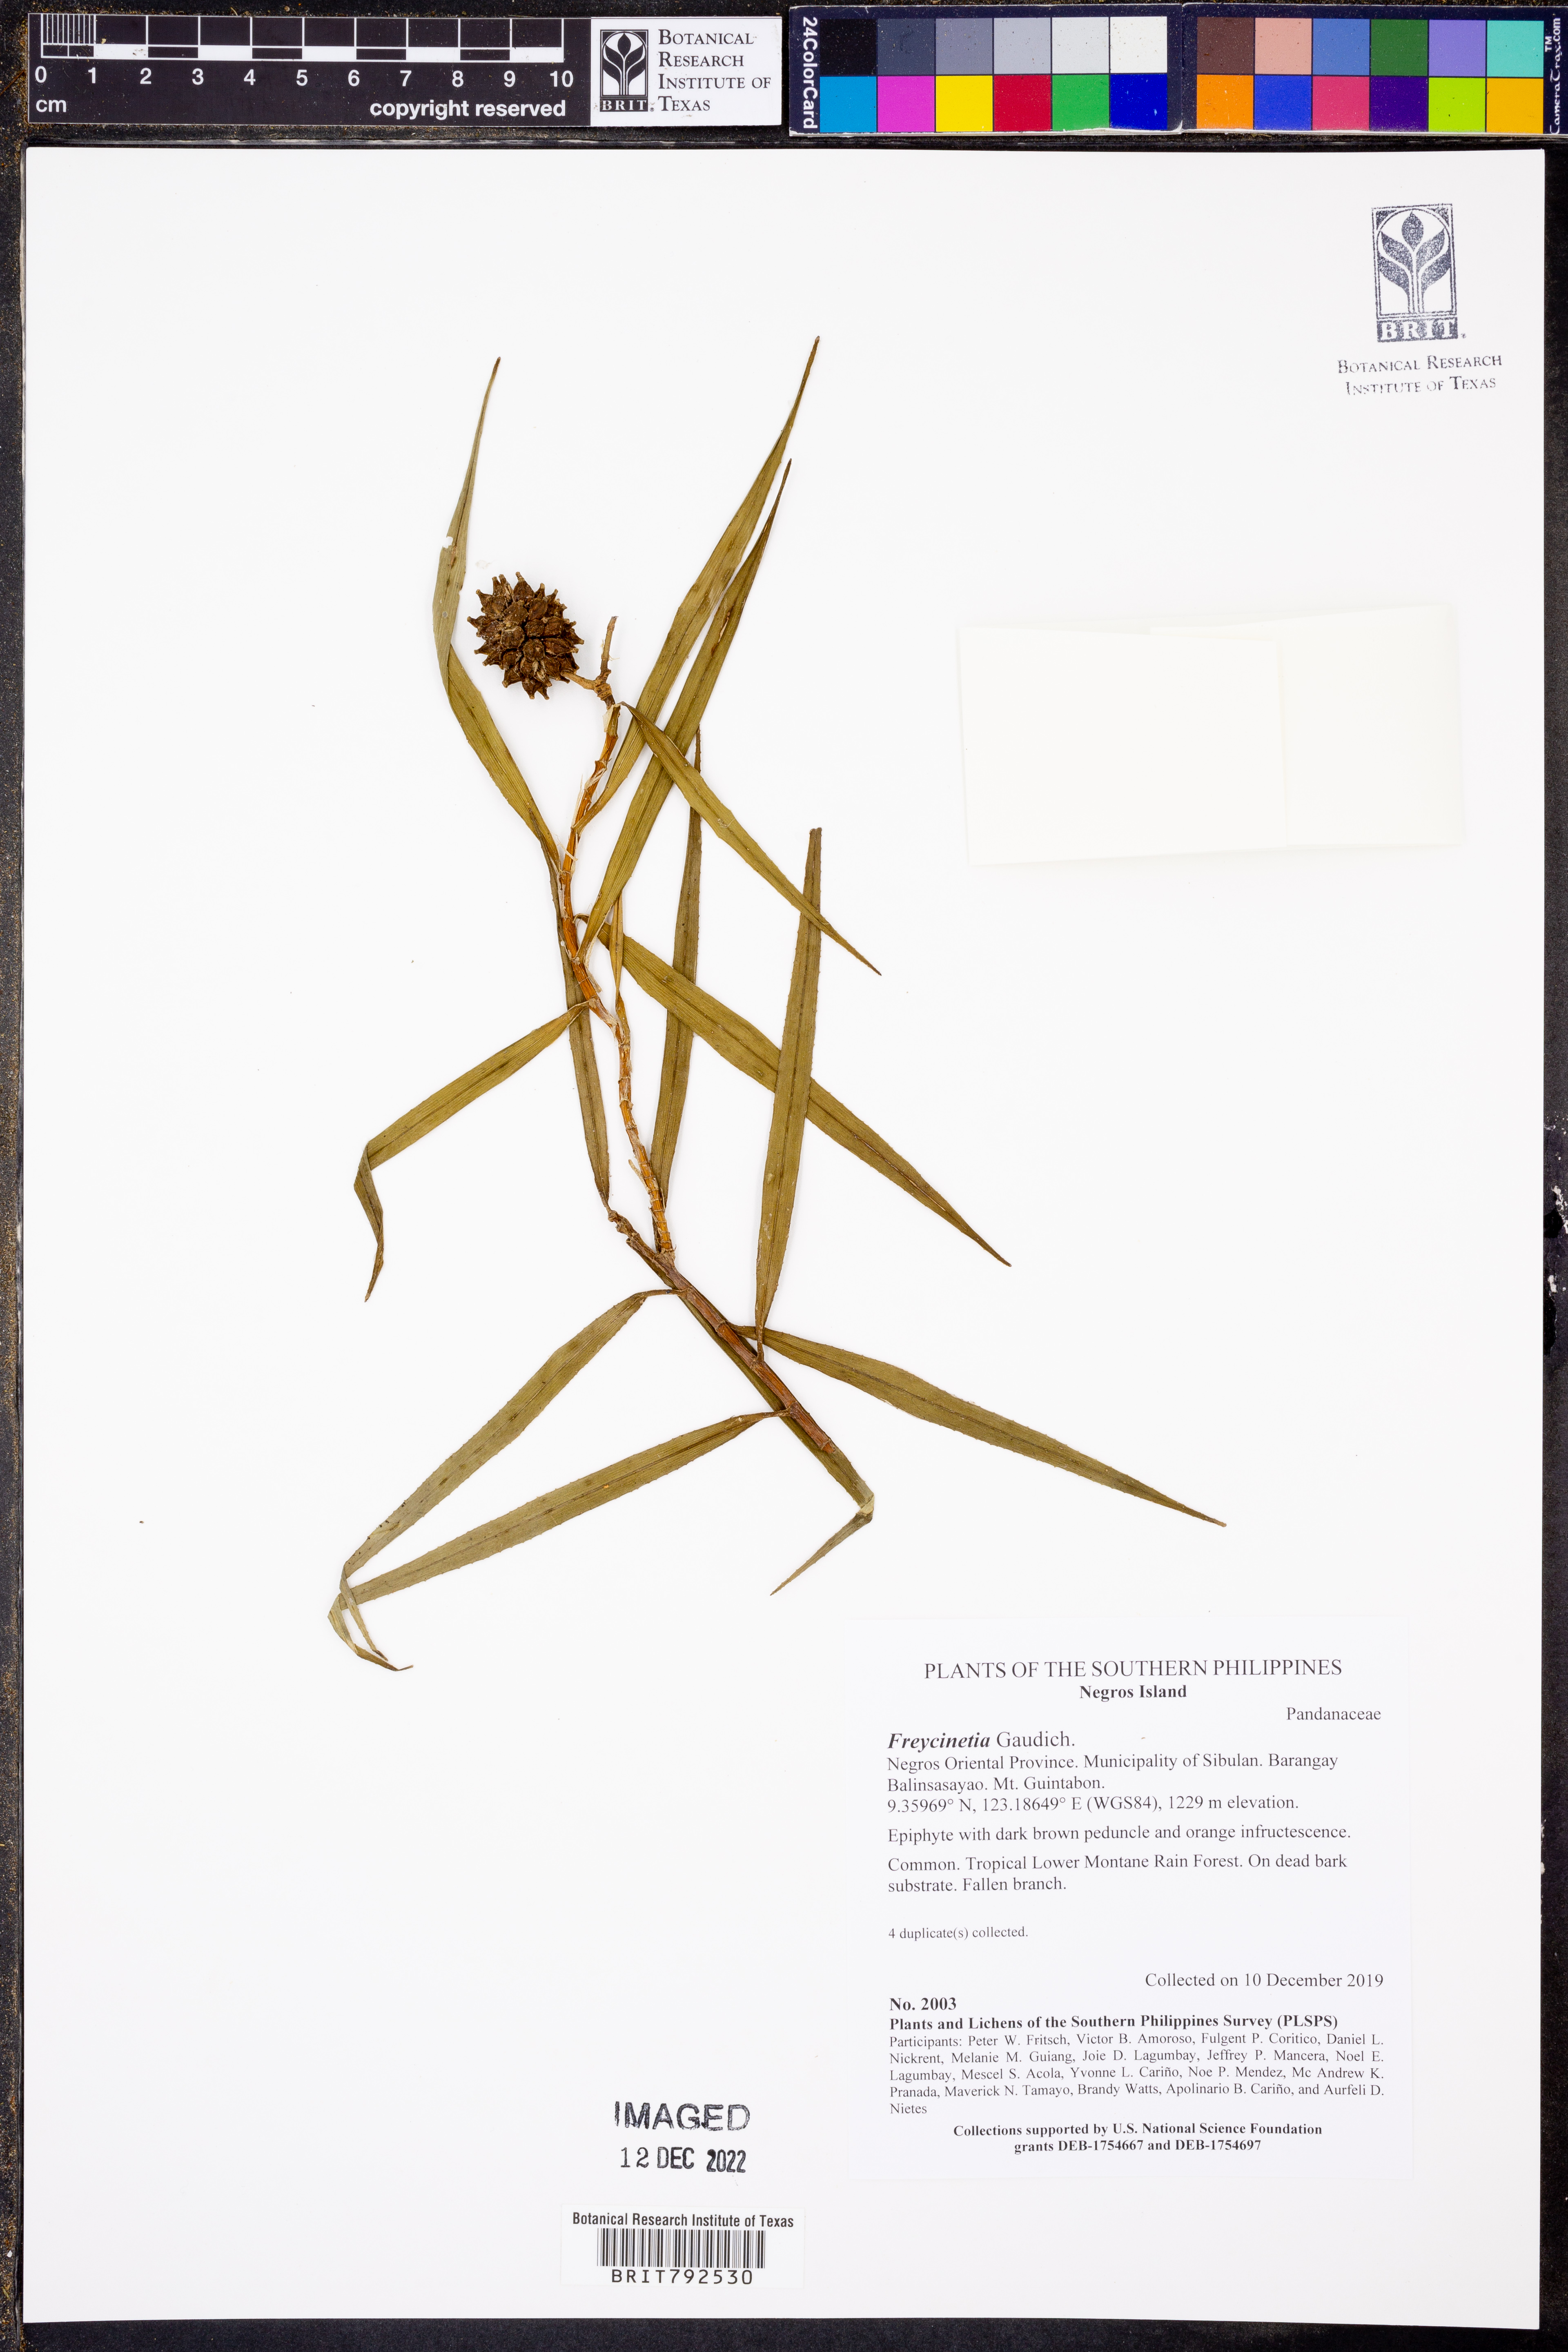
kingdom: Plantae
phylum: Tracheophyta
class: Liliopsida
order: Pandanales
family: Pandanaceae
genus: Freycinetia
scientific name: Freycinetia
